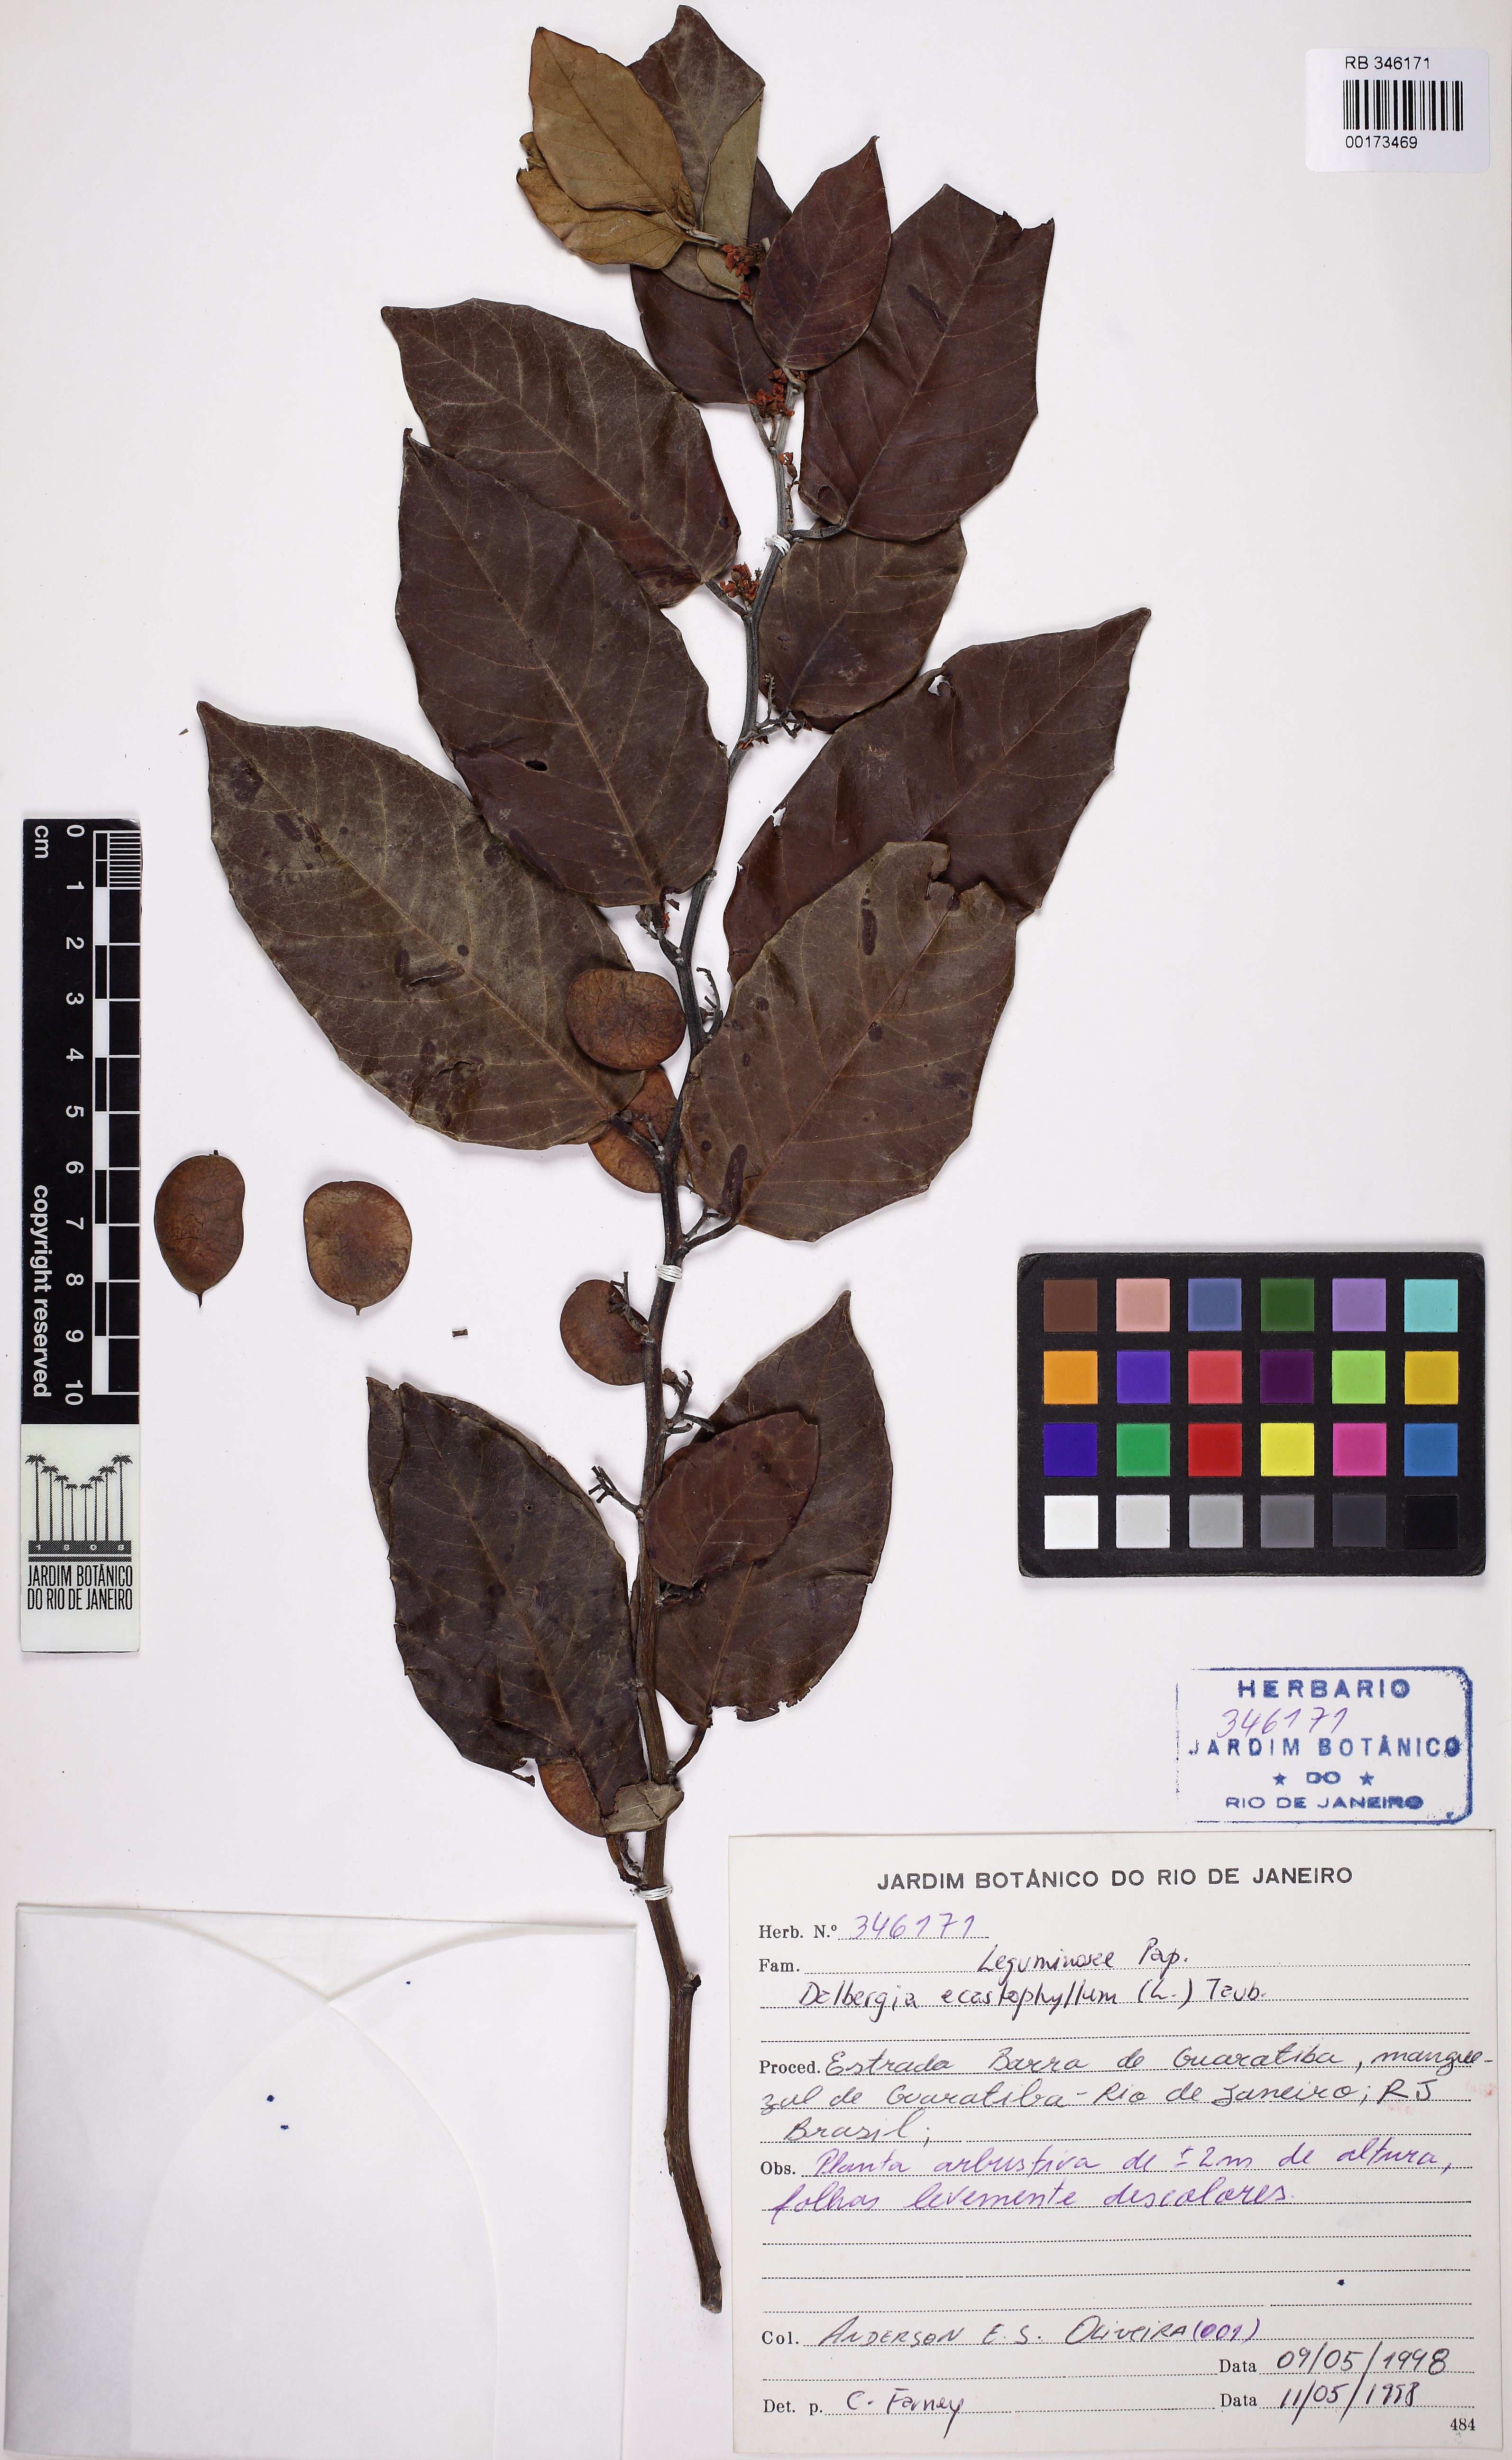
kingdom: Plantae
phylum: Tracheophyta
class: Magnoliopsida
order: Fabales
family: Fabaceae
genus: Dalbergia
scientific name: Dalbergia ecastaphyllum
